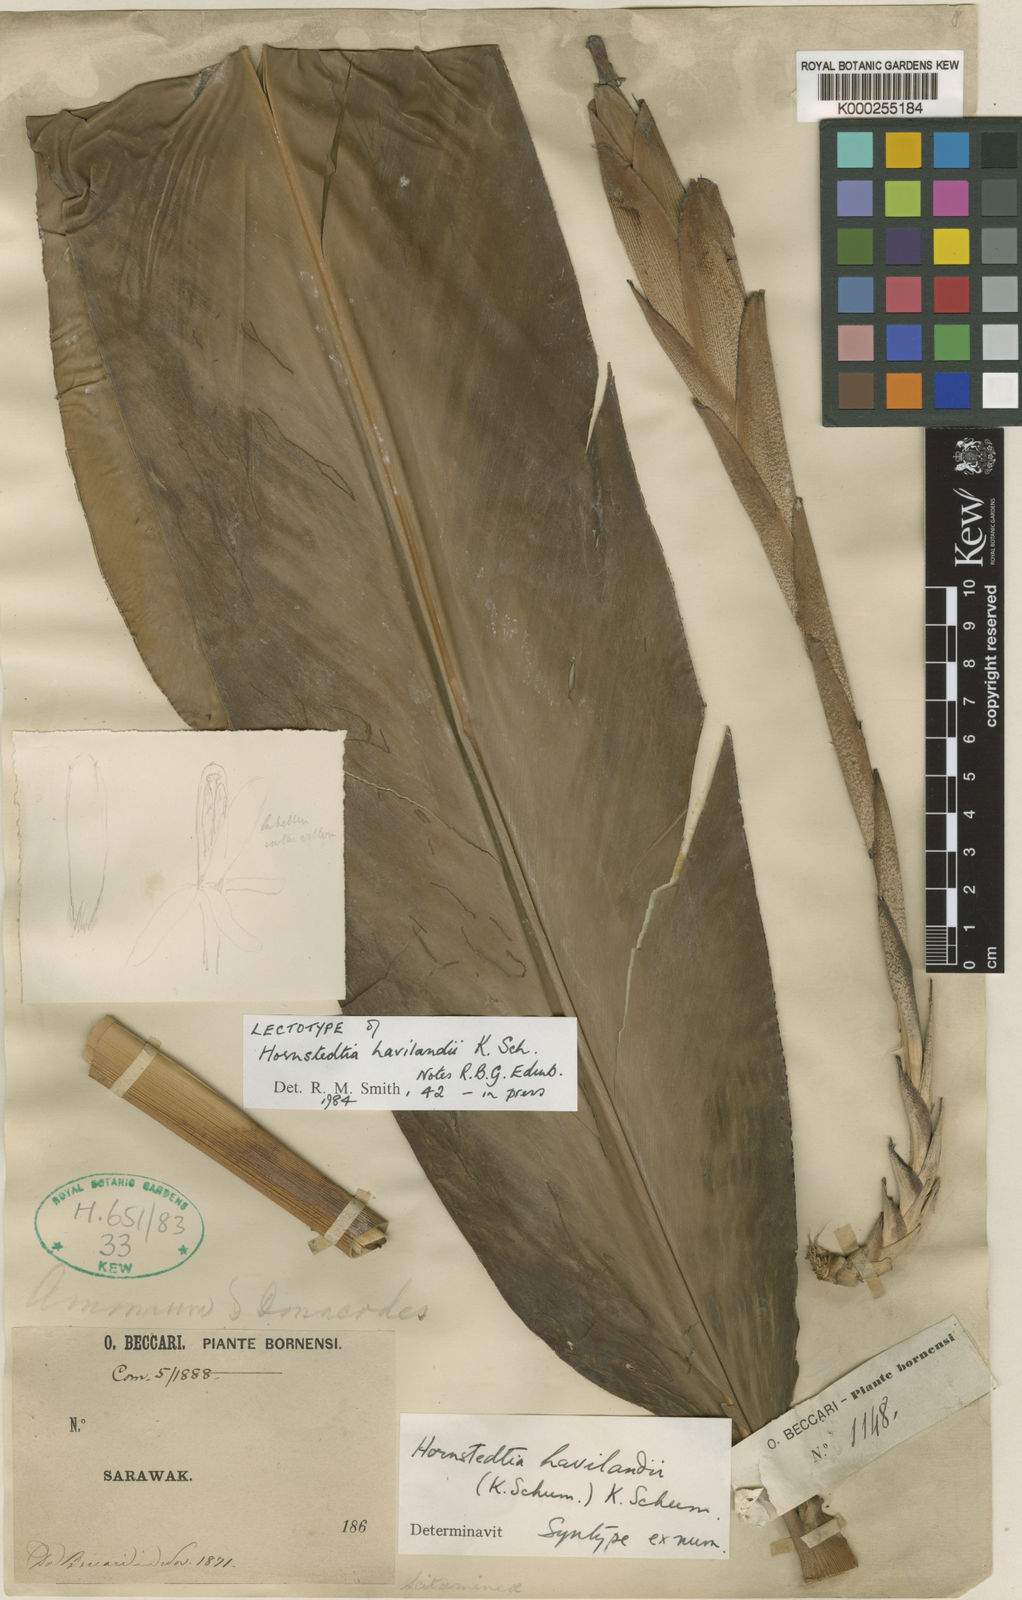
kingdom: Plantae
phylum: Tracheophyta
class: Liliopsida
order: Zingiberales
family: Zingiberaceae
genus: Hornstedtia
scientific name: Hornstedtia havilandii
